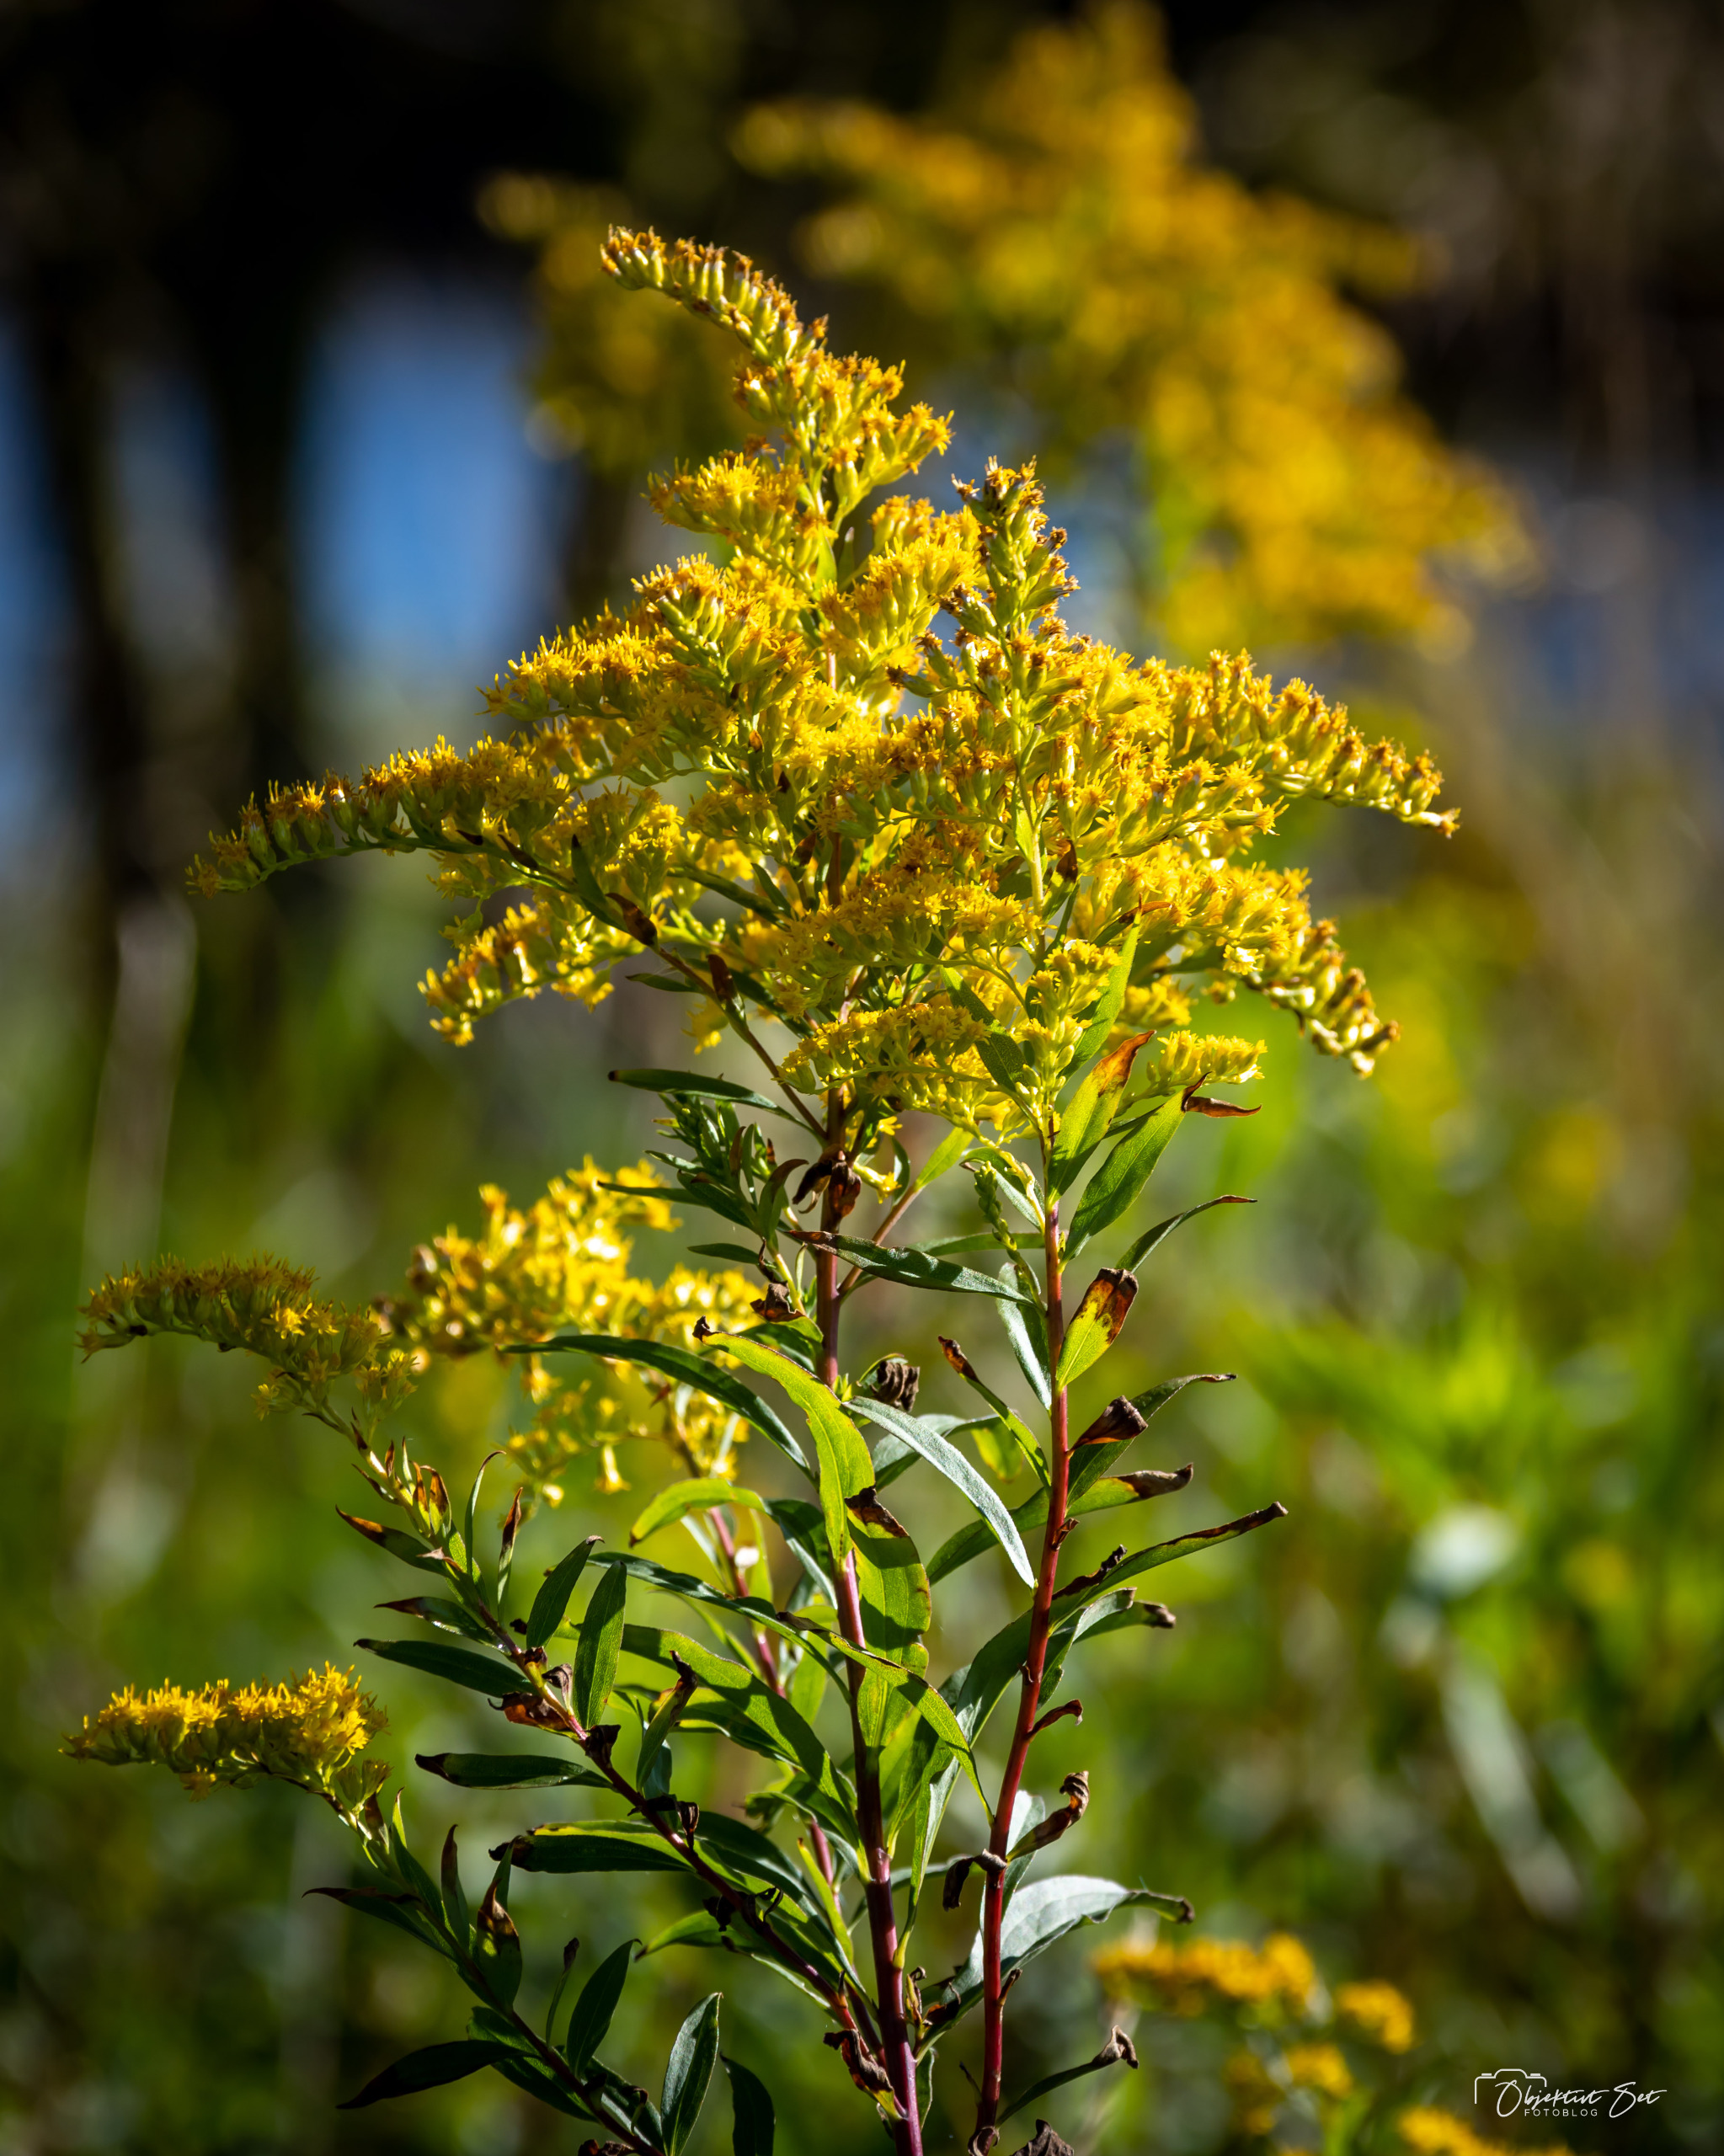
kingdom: Plantae
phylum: Tracheophyta
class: Magnoliopsida
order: Asterales
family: Asteraceae
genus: Solidago
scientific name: Solidago gigantea
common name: Sildig gyldenris
